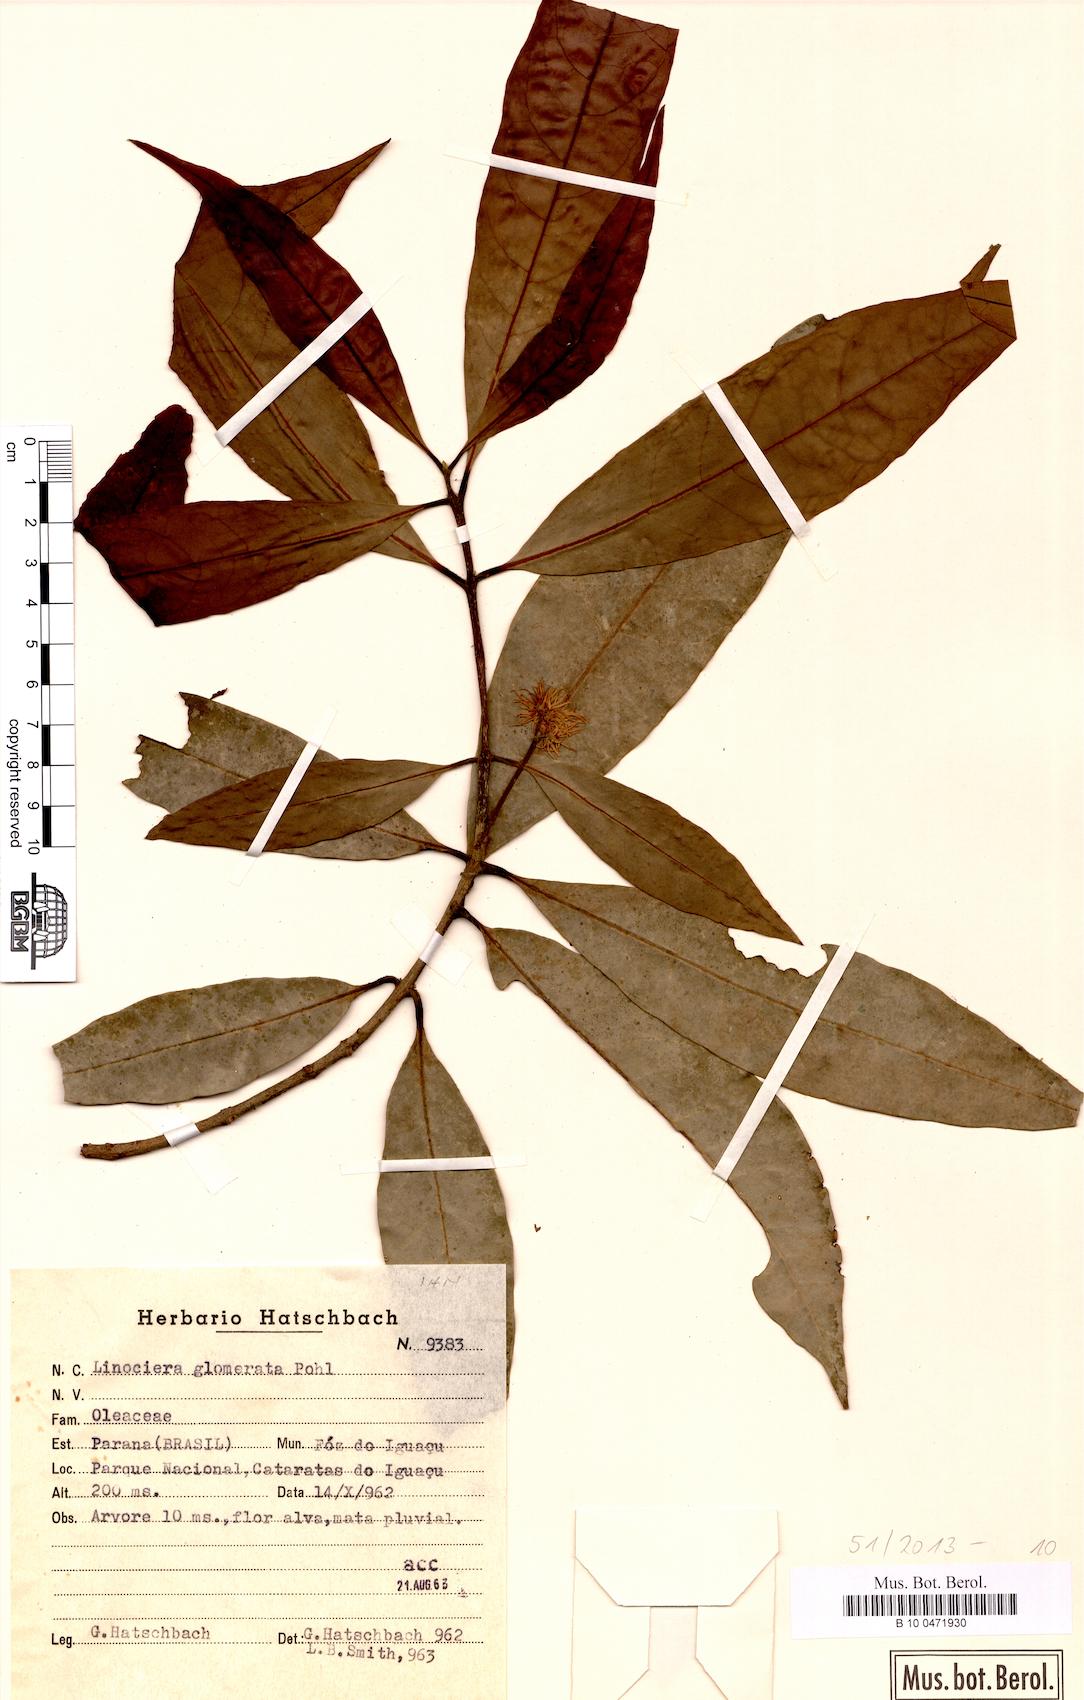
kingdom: Plantae
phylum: Tracheophyta
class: Magnoliopsida
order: Lamiales
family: Oleaceae
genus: Chionanthus
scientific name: Chionanthus trichotomus
